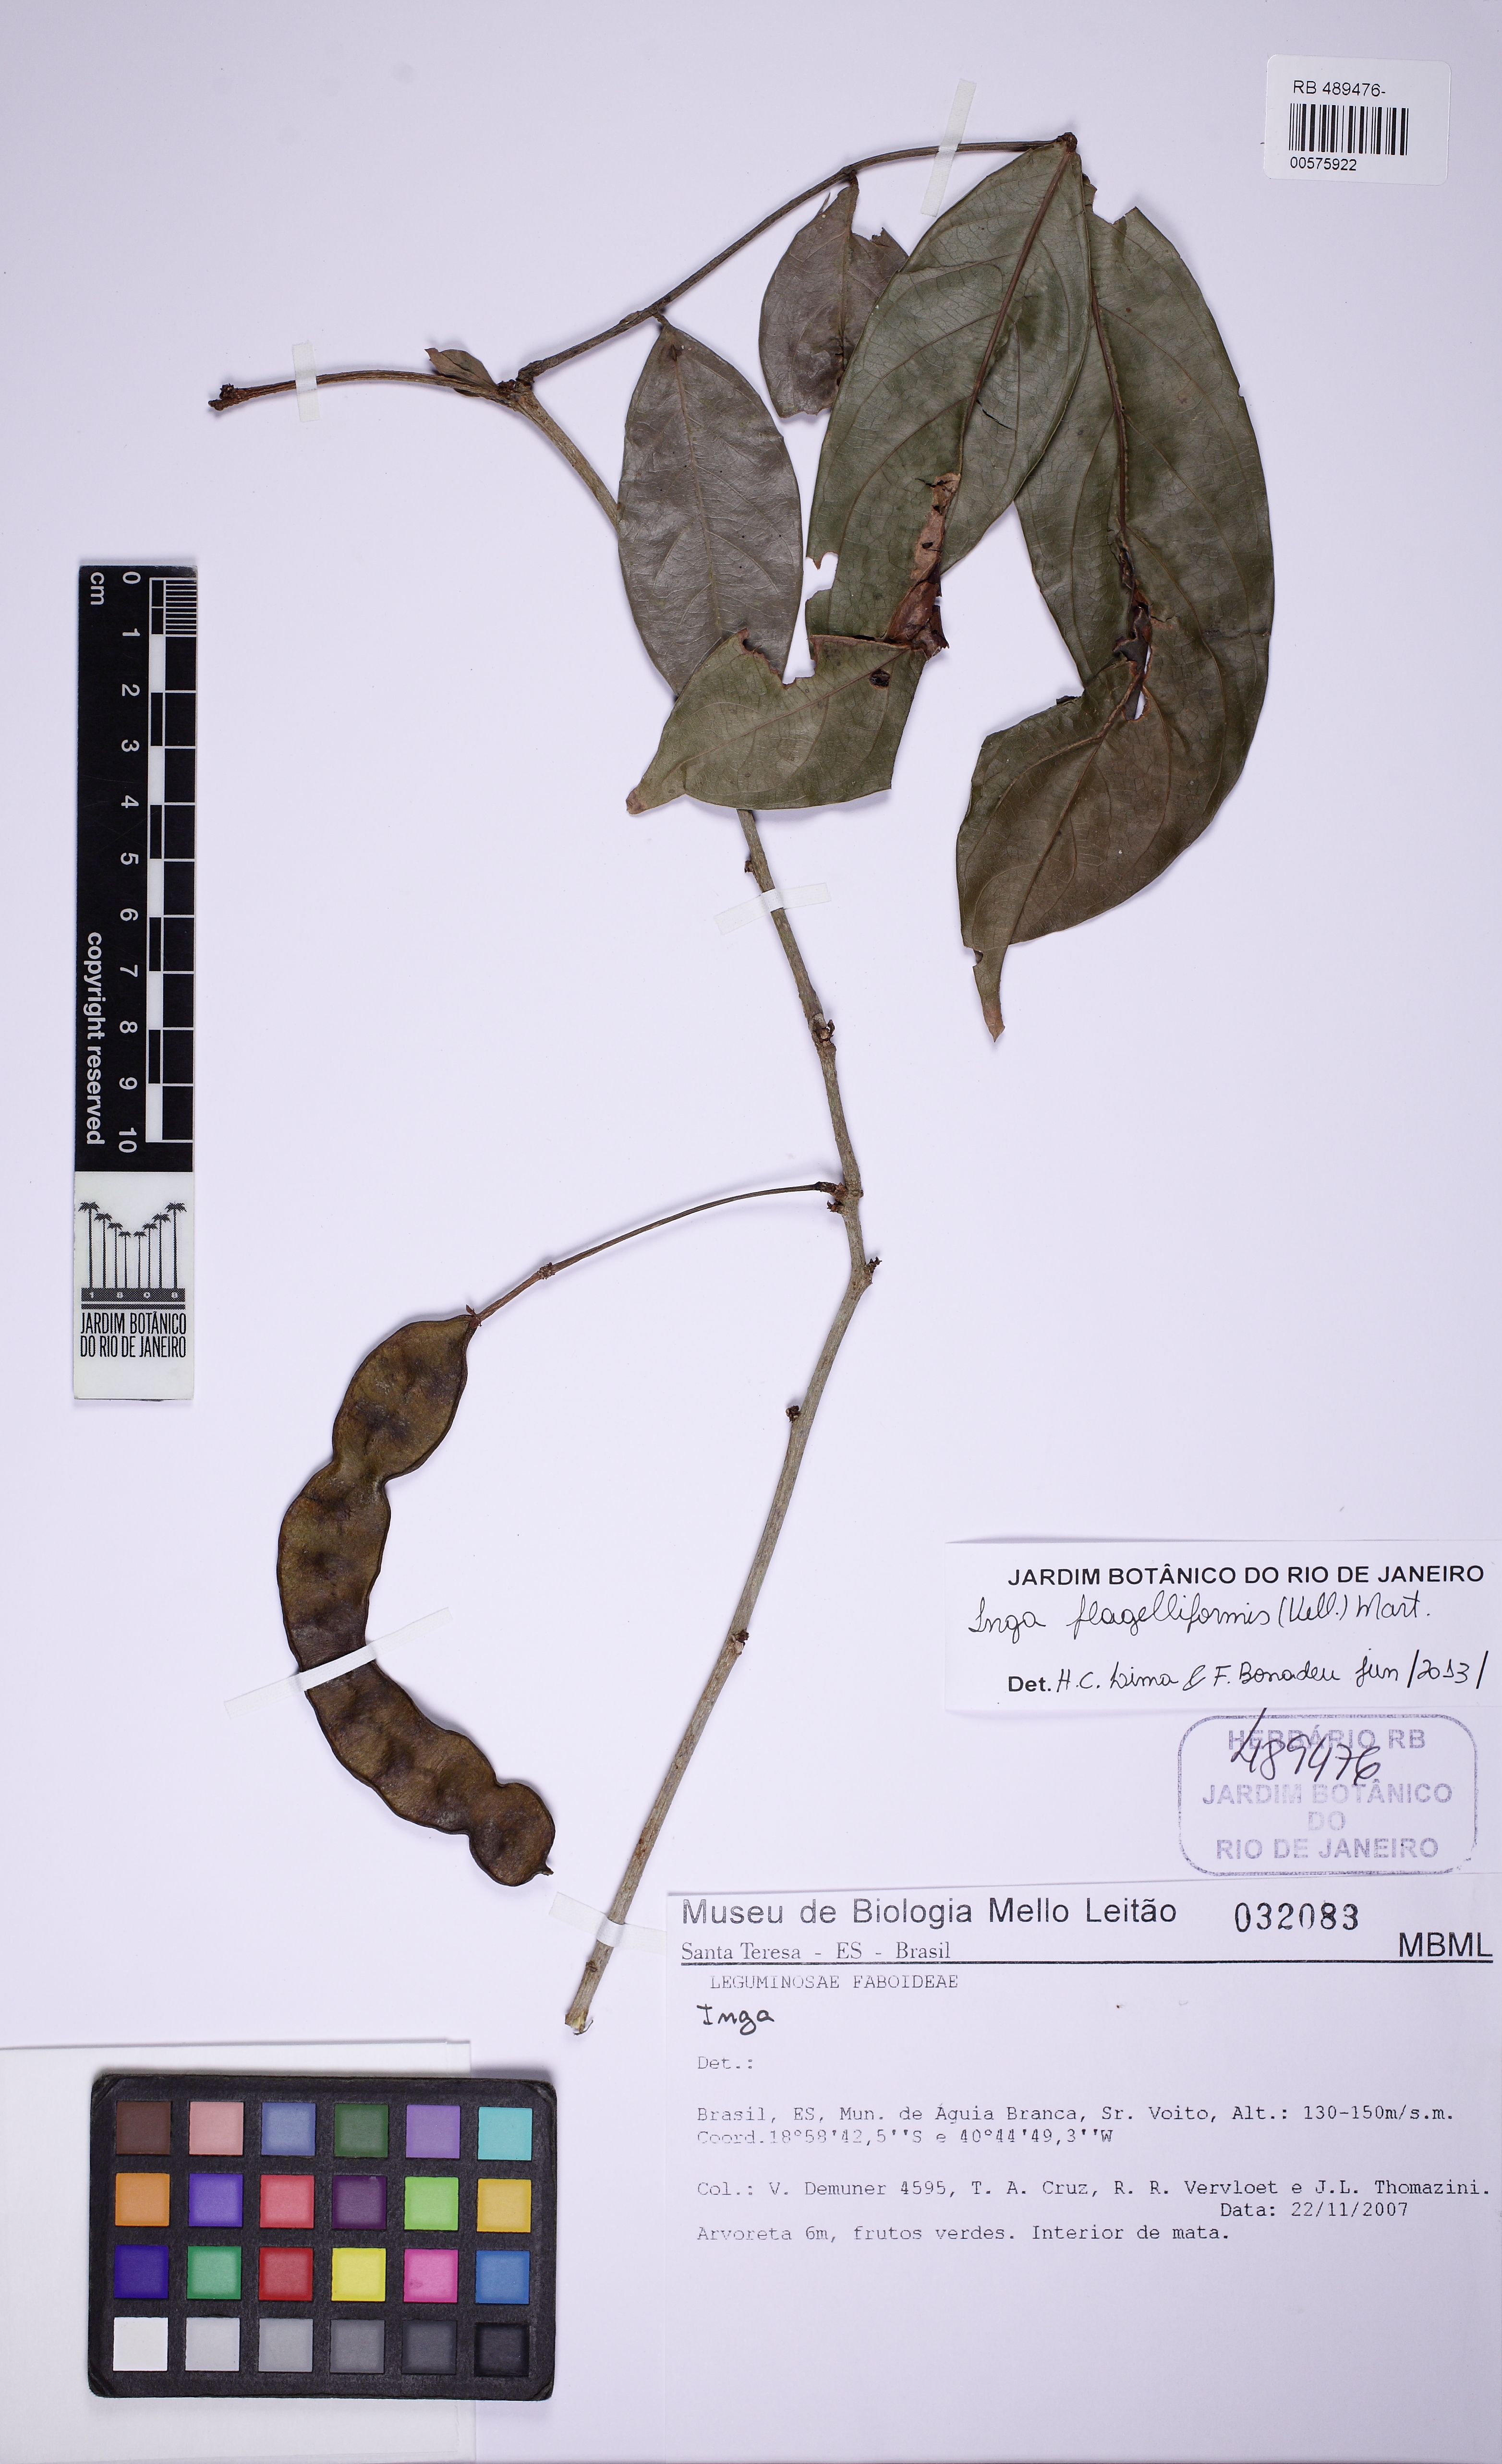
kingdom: Plantae
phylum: Tracheophyta
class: Magnoliopsida
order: Fabales
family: Fabaceae
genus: Inga
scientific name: Inga flagelliformis
